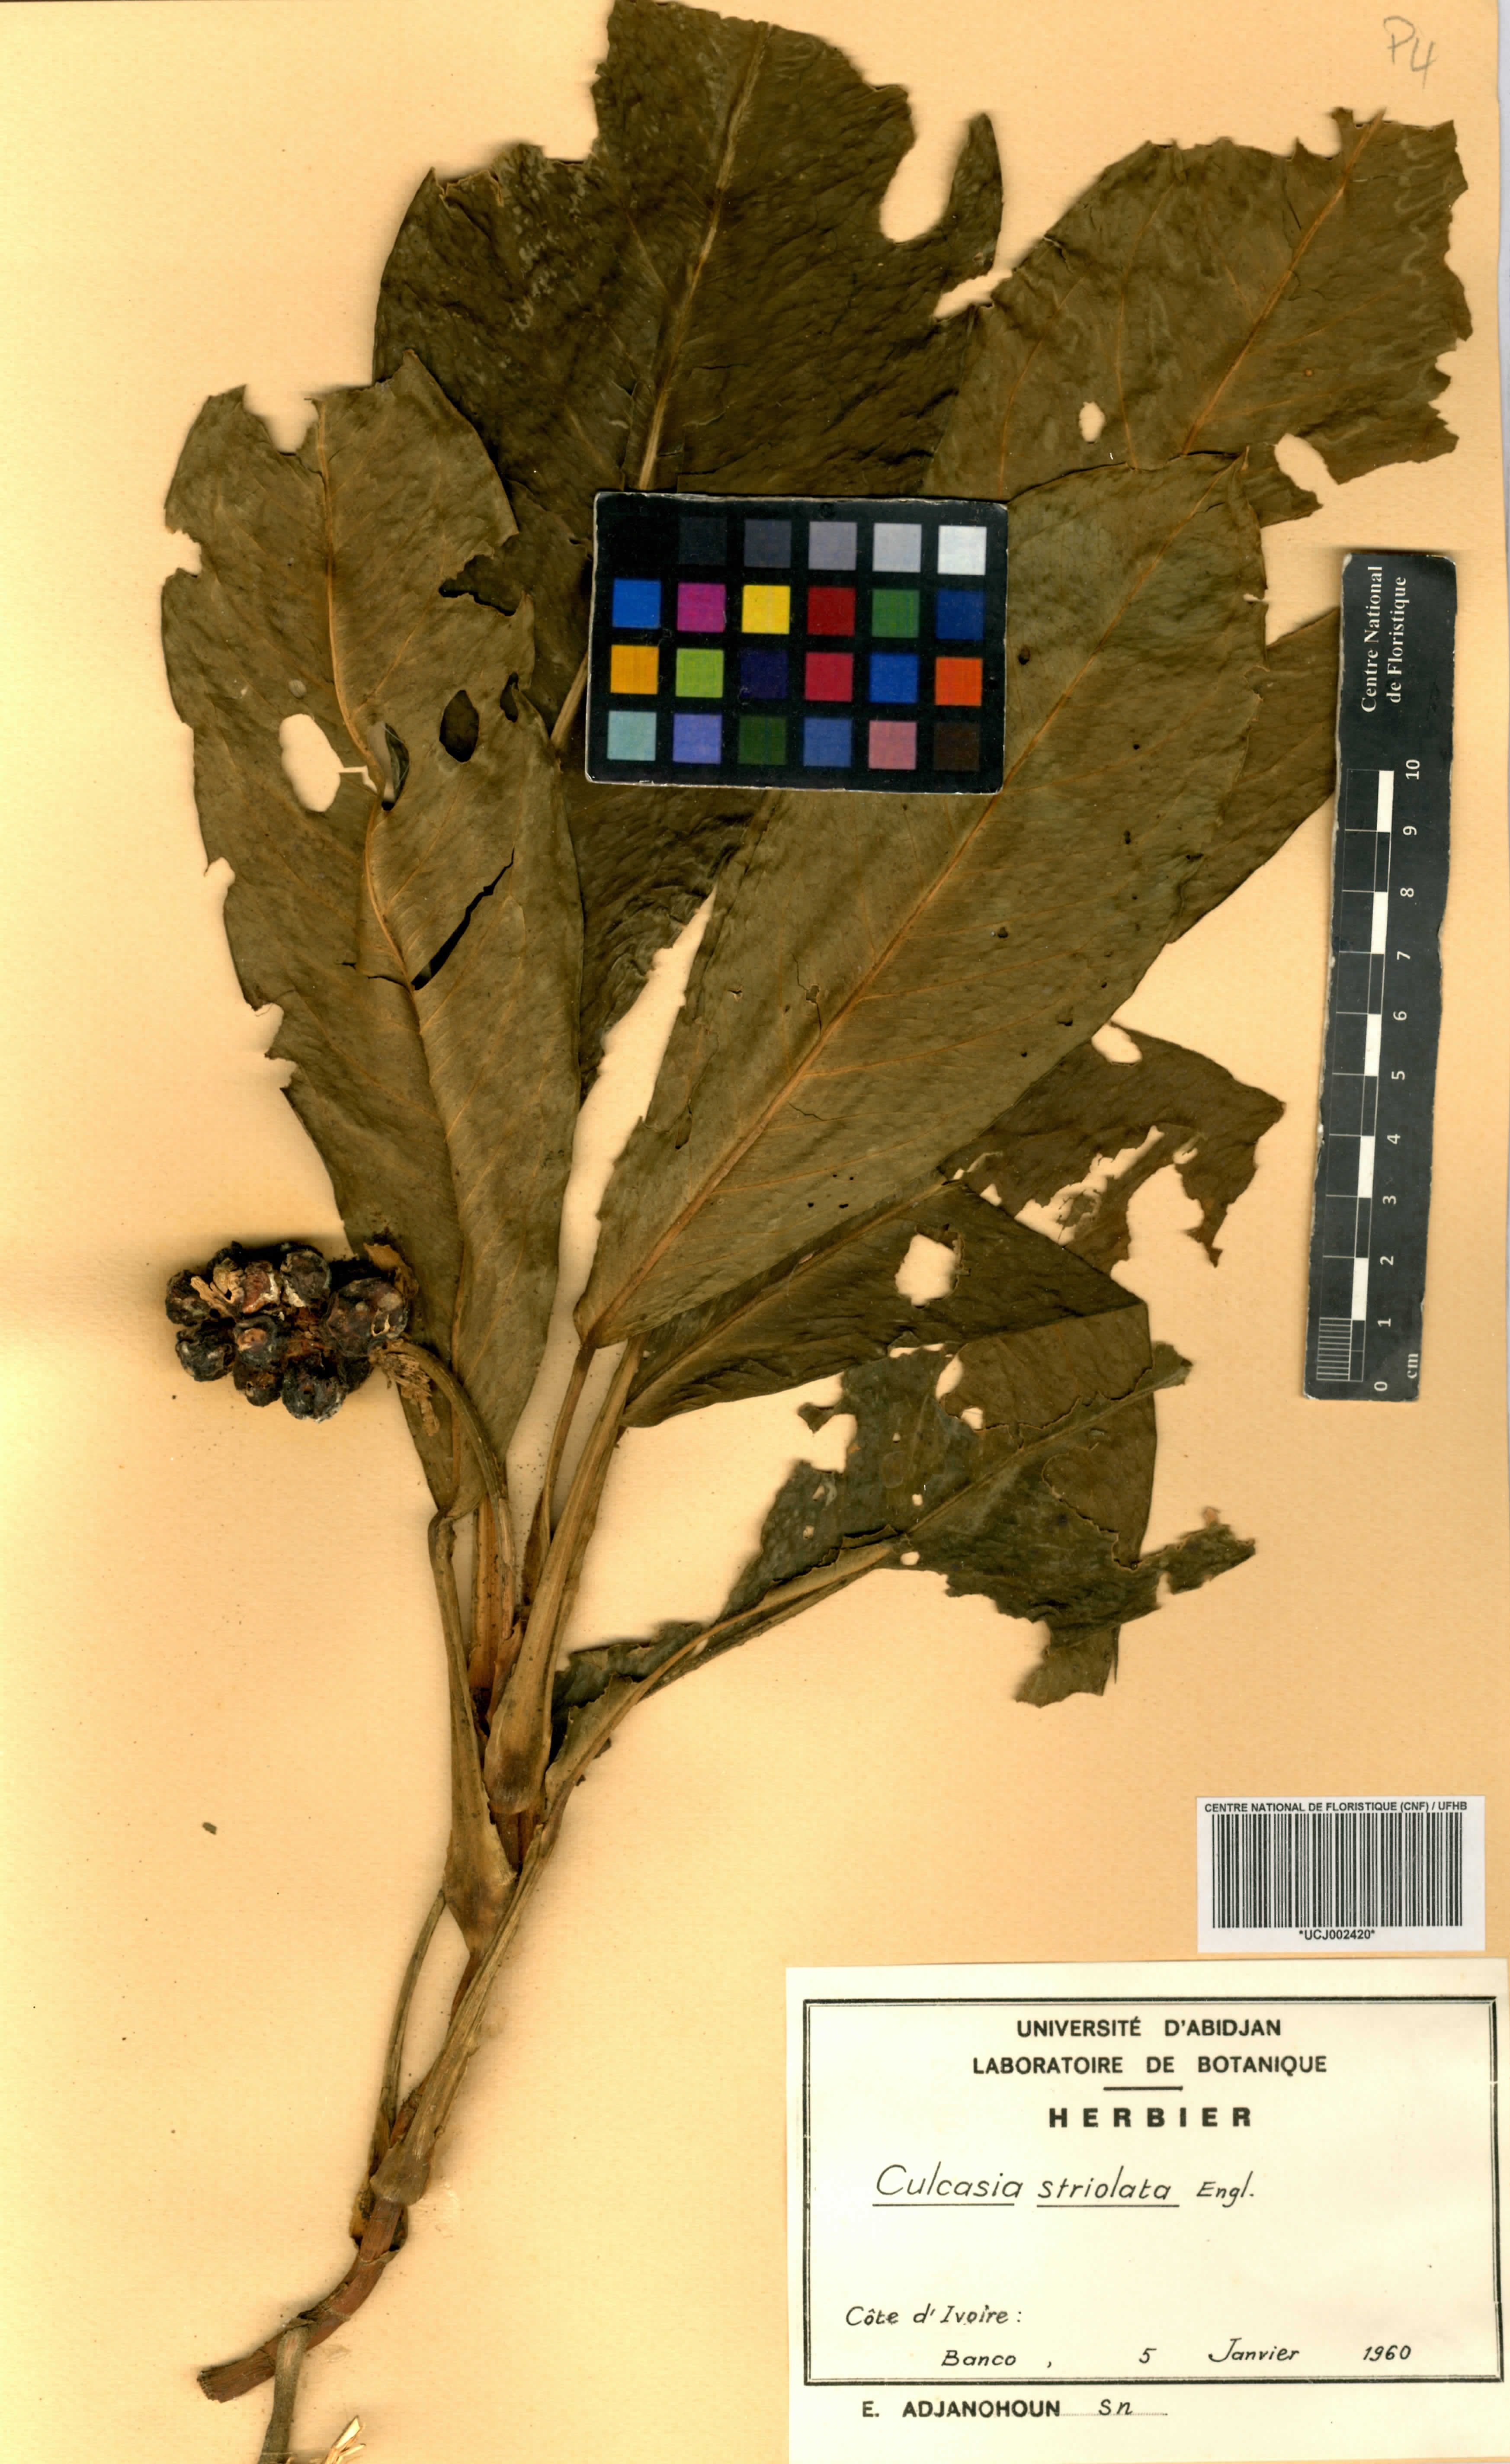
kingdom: Plantae
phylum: Tracheophyta
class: Liliopsida
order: Alismatales
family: Araceae
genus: Culcasia
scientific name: Culcasia striolata
